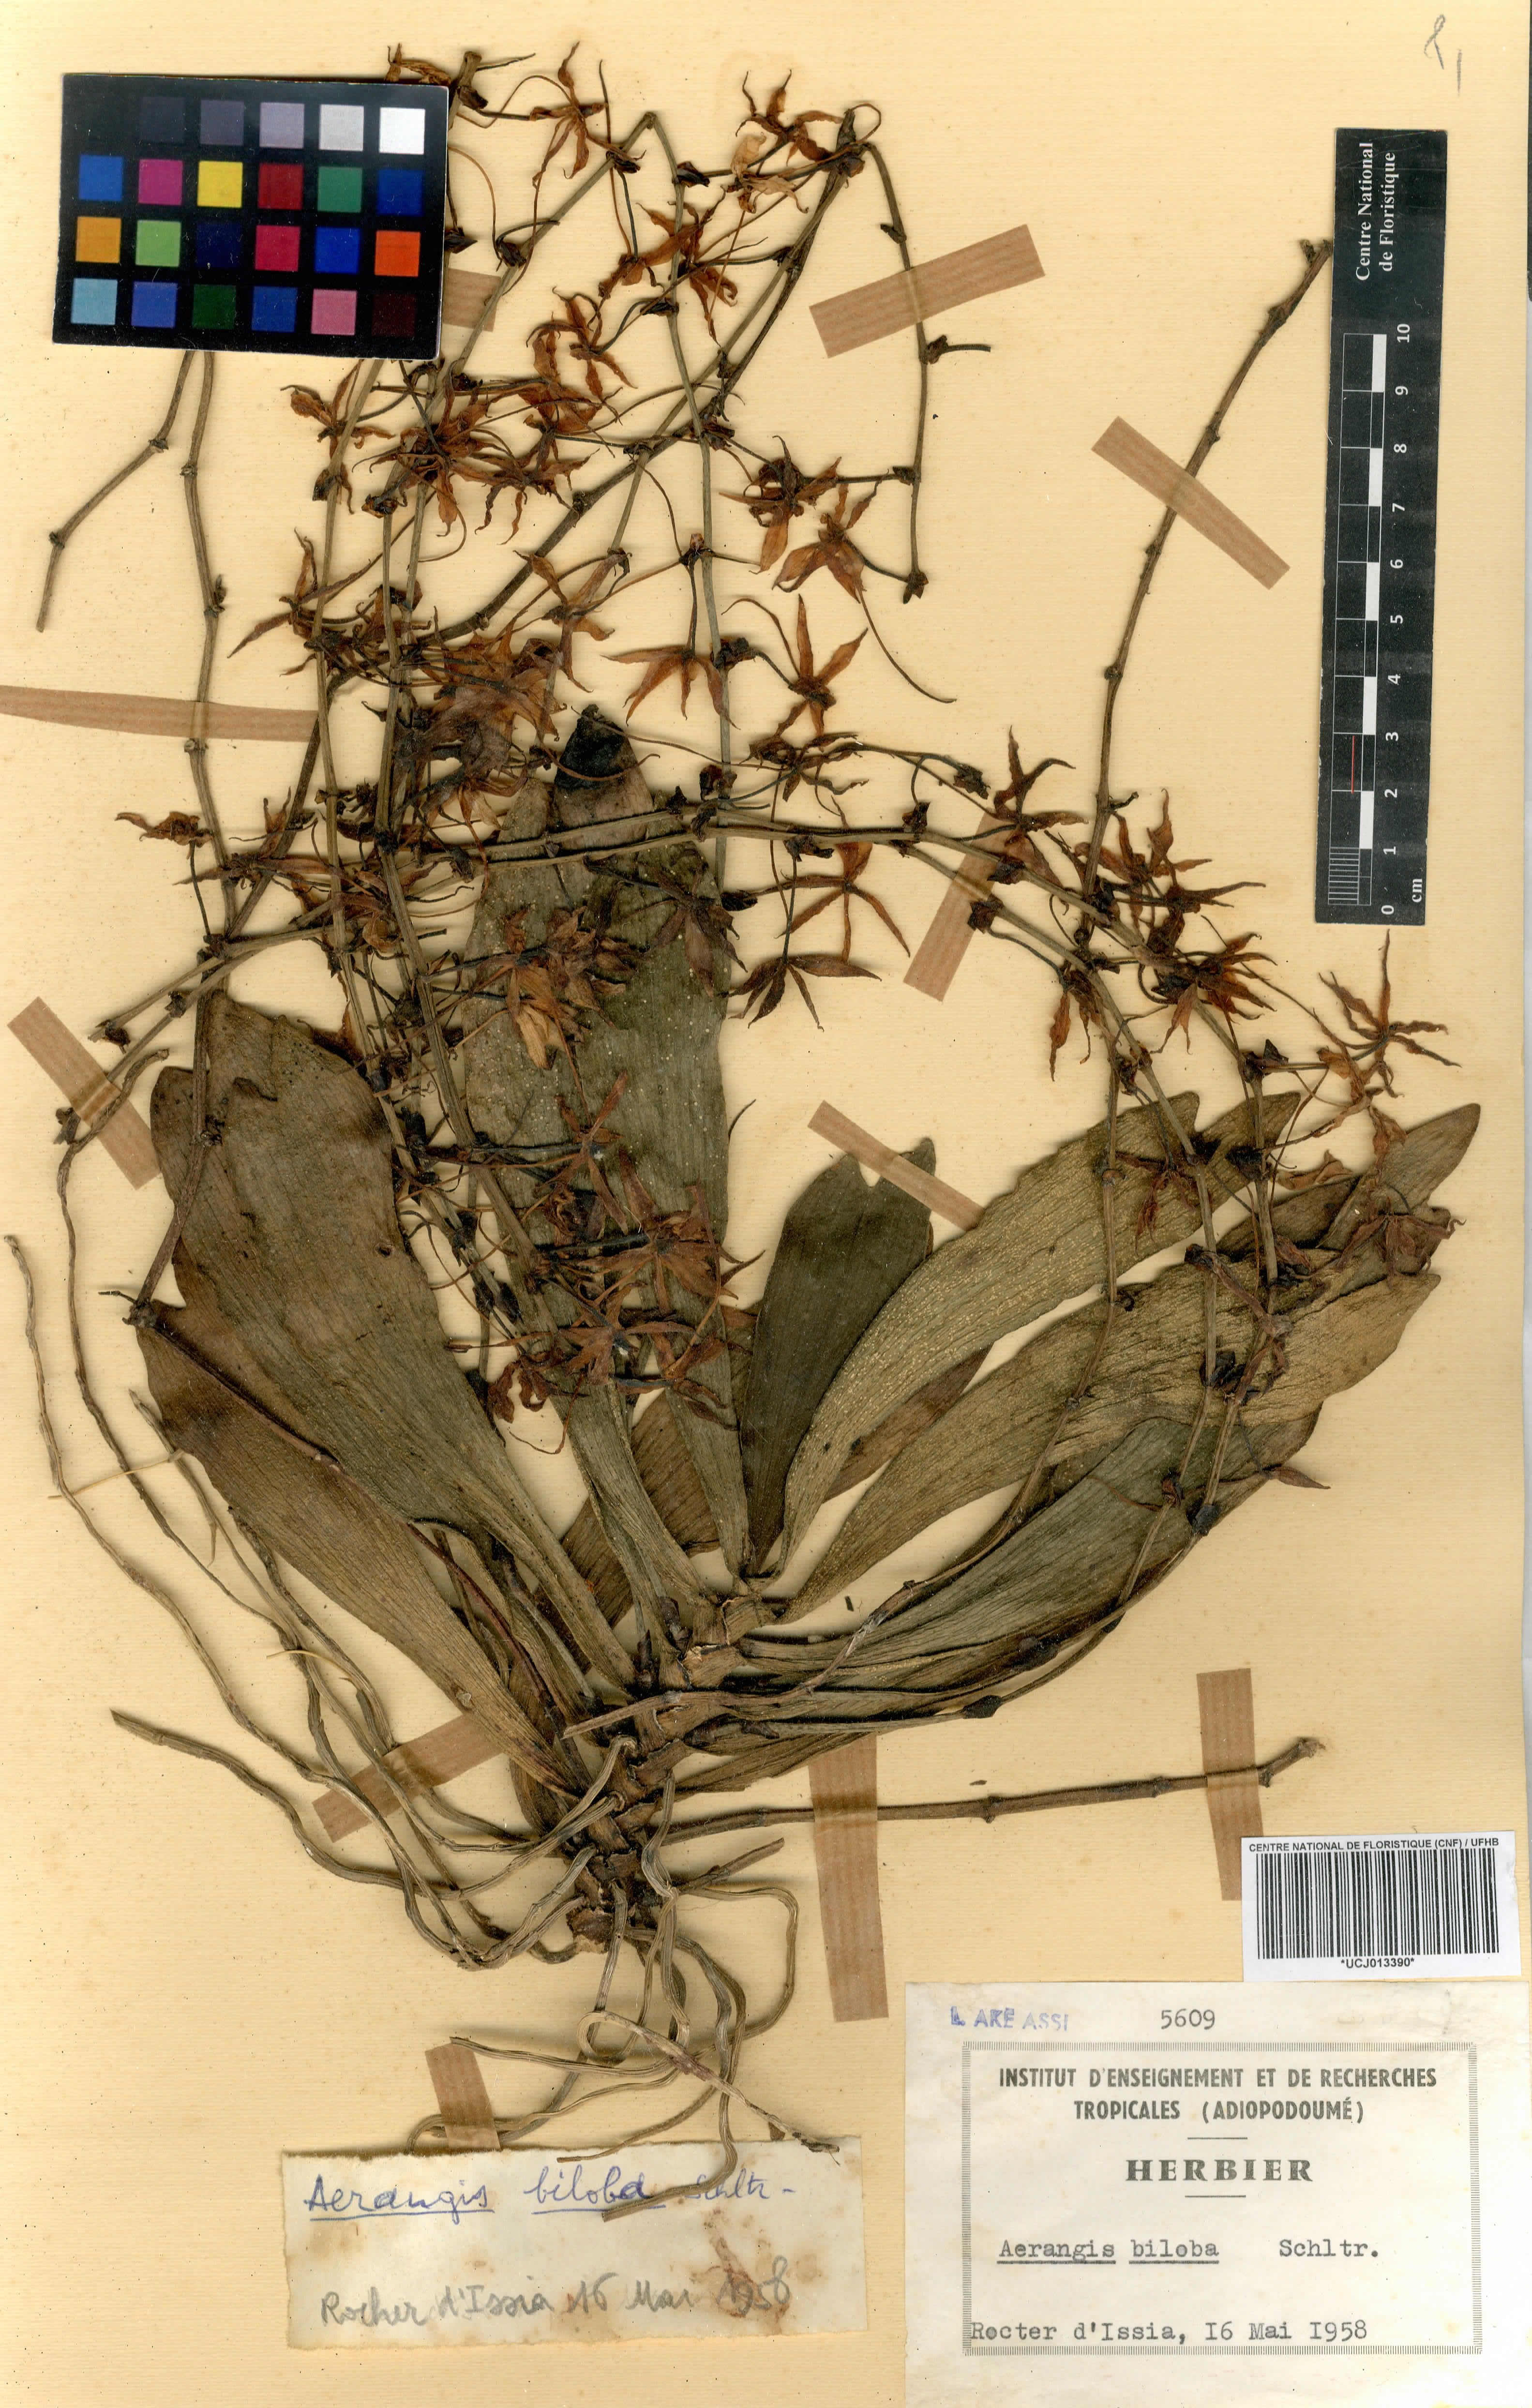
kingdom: Plantae
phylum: Tracheophyta
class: Liliopsida
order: Asparagales
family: Orchidaceae
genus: Aerangis
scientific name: Aerangis biloba
